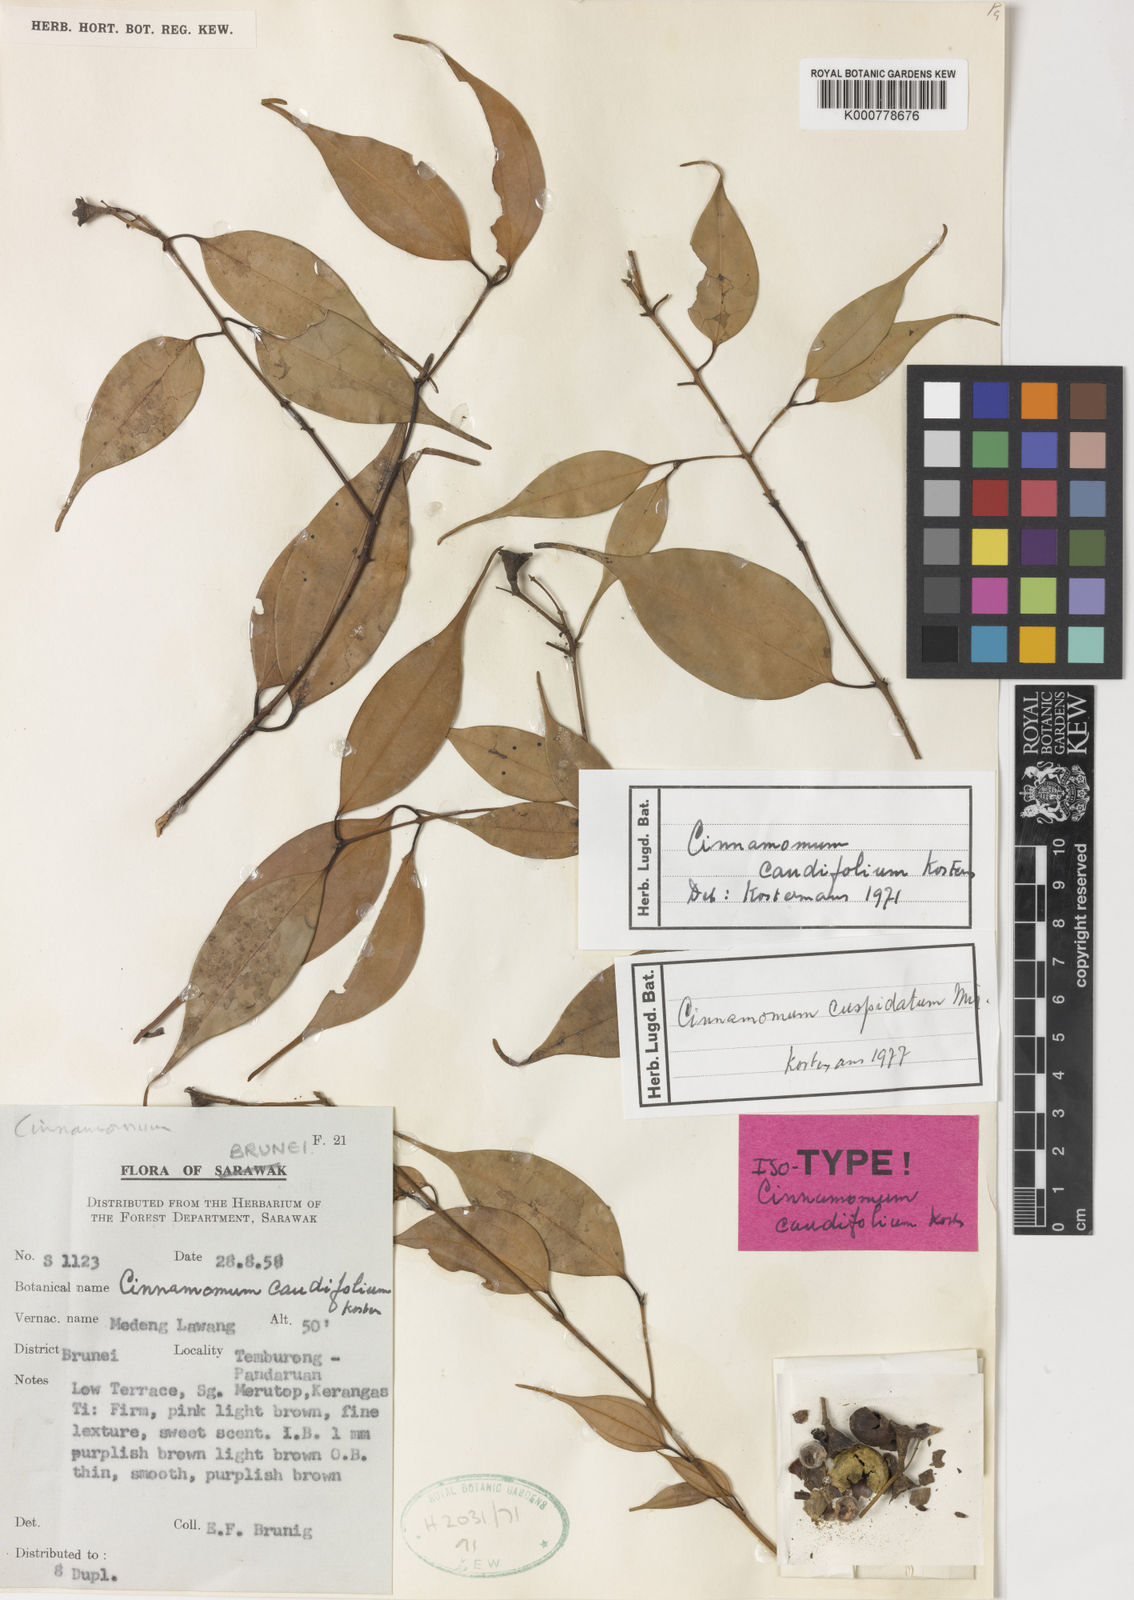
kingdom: Plantae
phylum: Tracheophyta
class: Magnoliopsida
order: Laurales
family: Lauraceae
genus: Cinnamomum
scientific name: Cinnamomum cuspidatum
